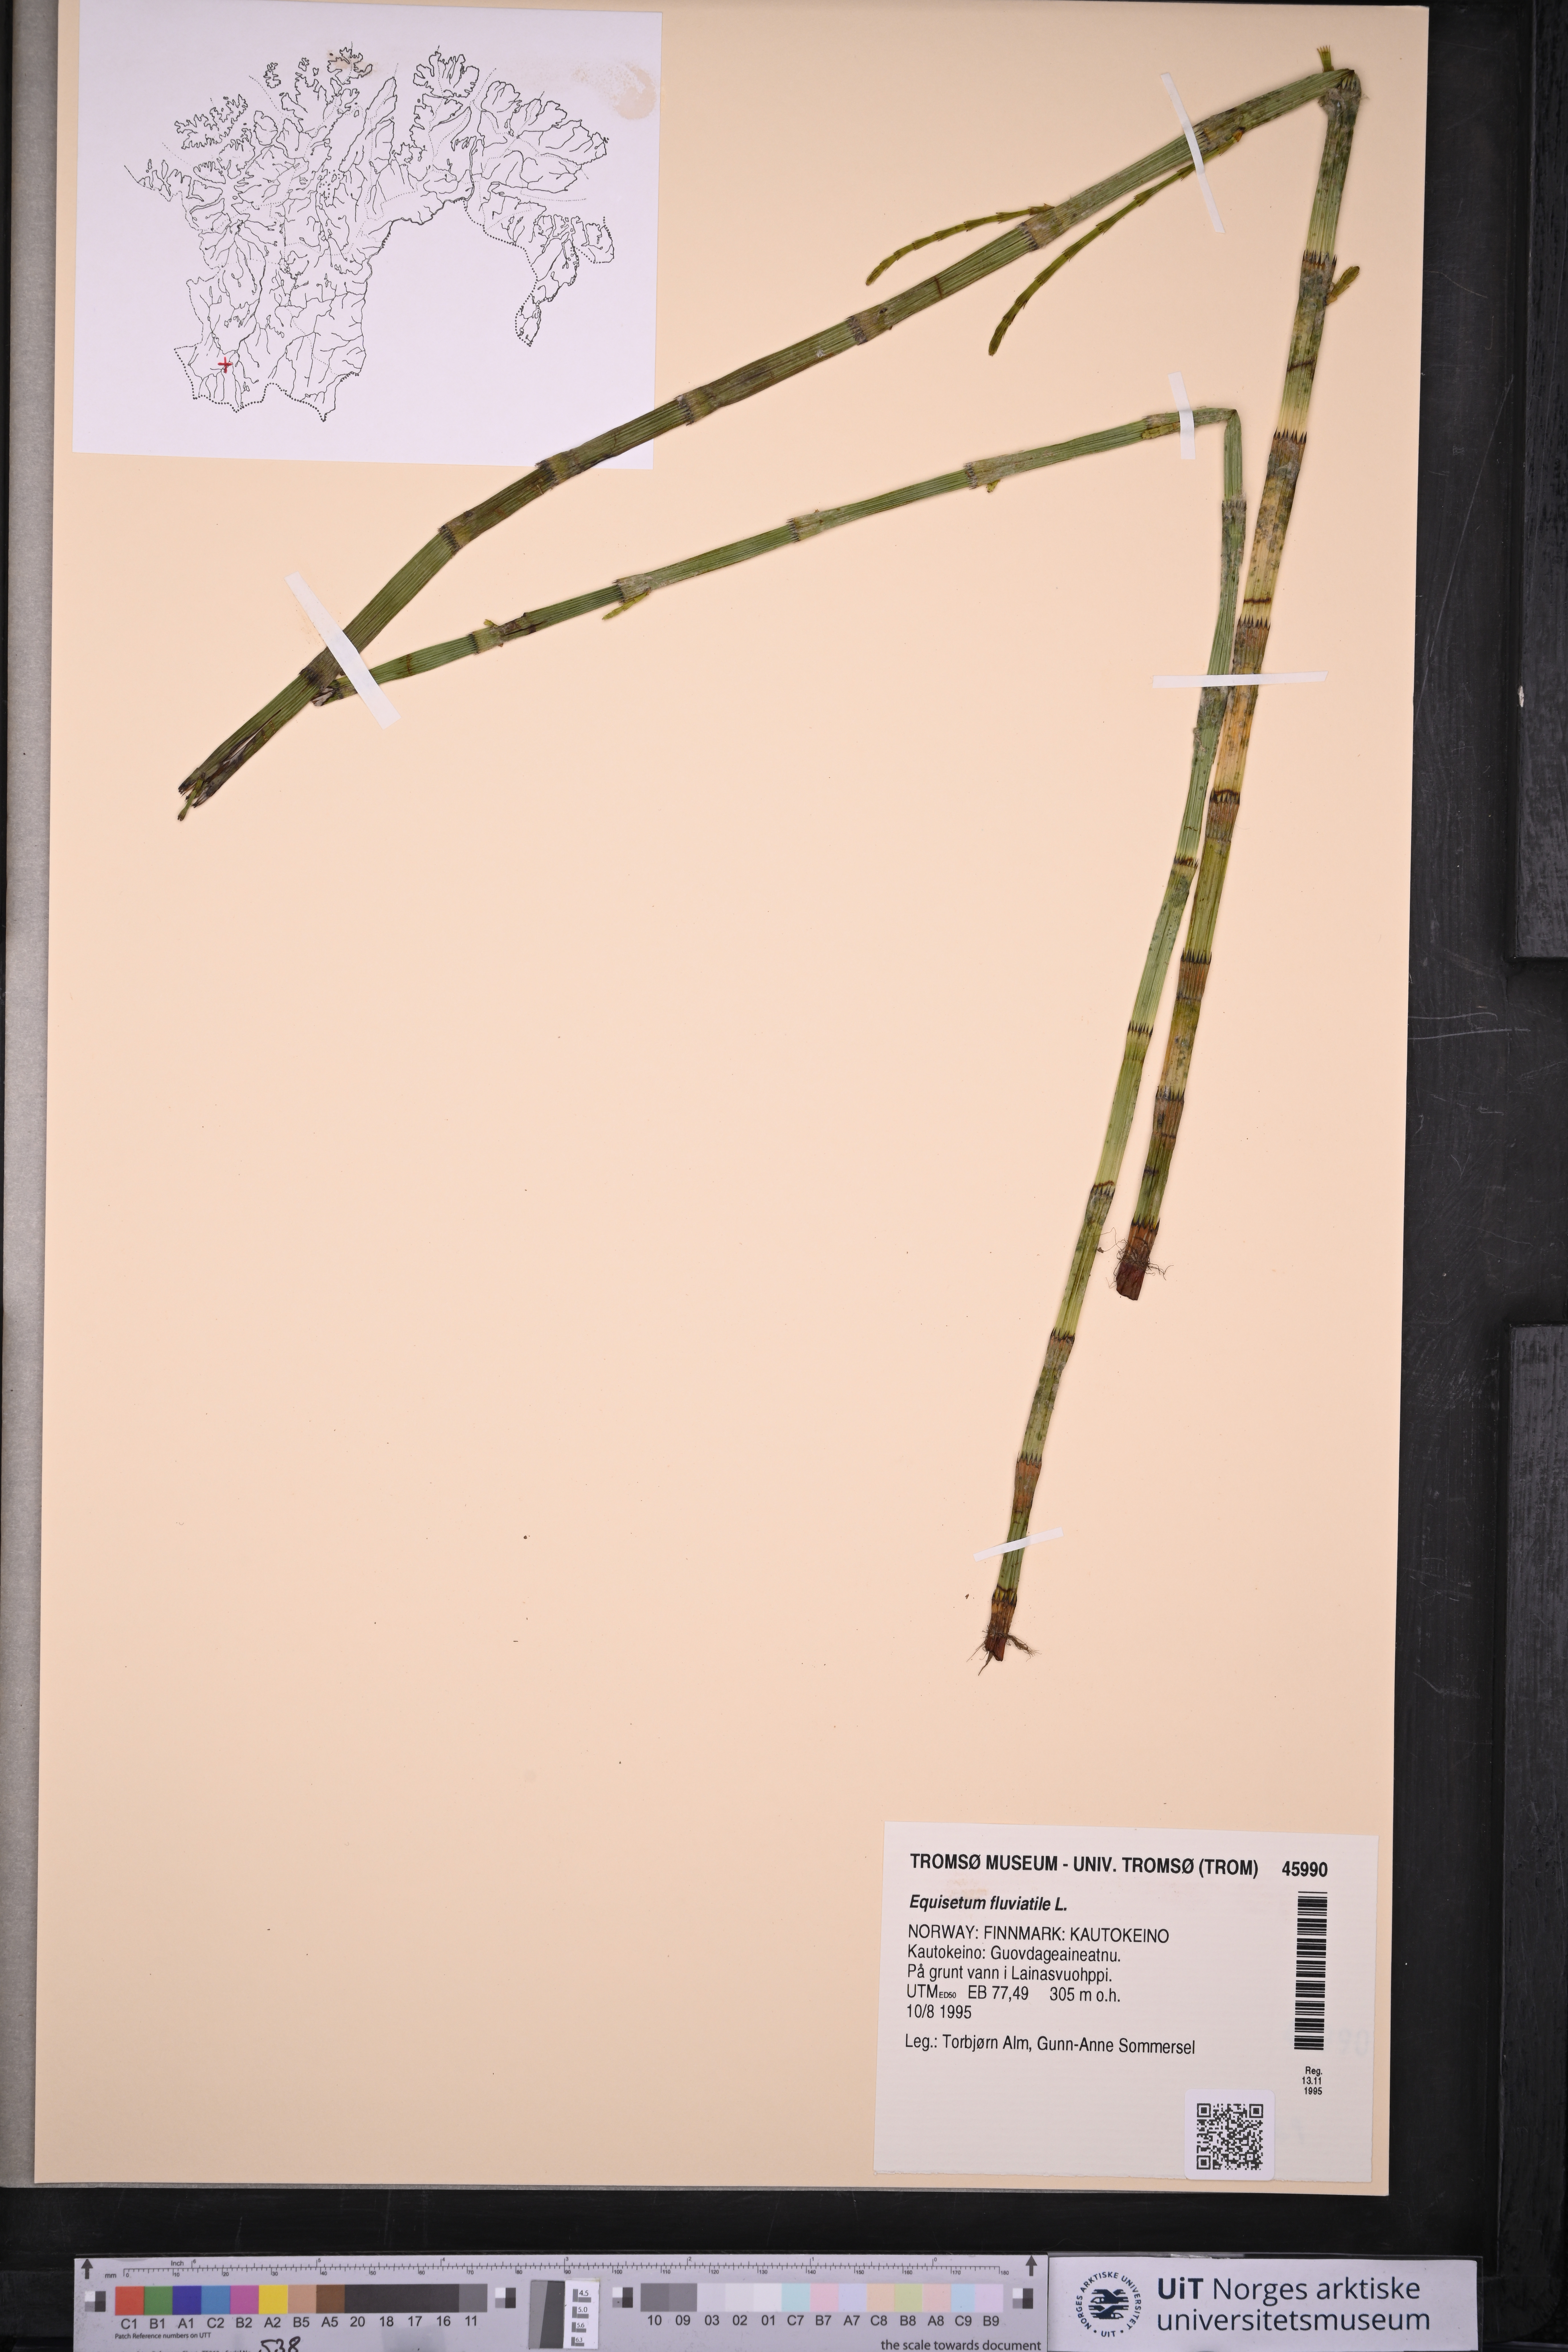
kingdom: Plantae
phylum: Tracheophyta
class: Polypodiopsida
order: Equisetales
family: Equisetaceae
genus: Equisetum
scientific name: Equisetum fluviatile
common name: Water horsetail
